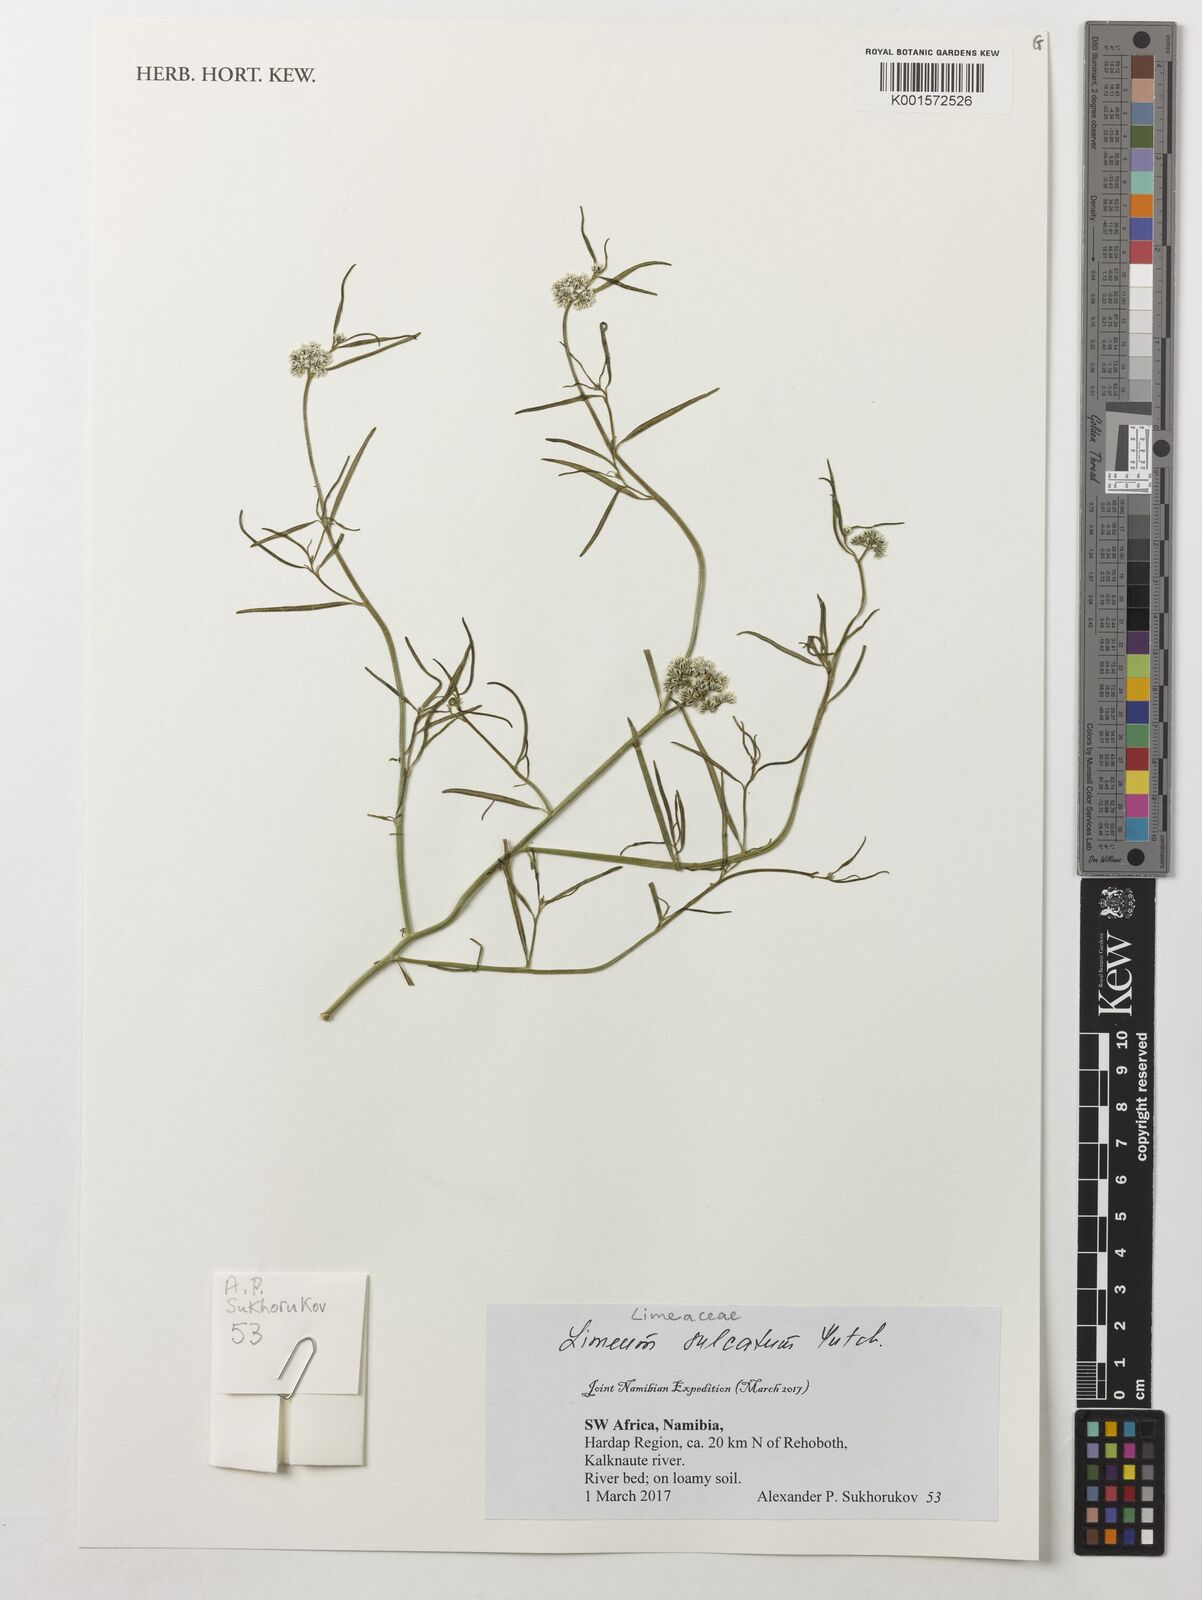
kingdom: Plantae
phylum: Tracheophyta
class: Magnoliopsida
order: Caryophyllales
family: Limeaceae
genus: Limeum
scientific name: Limeum sulcatum
